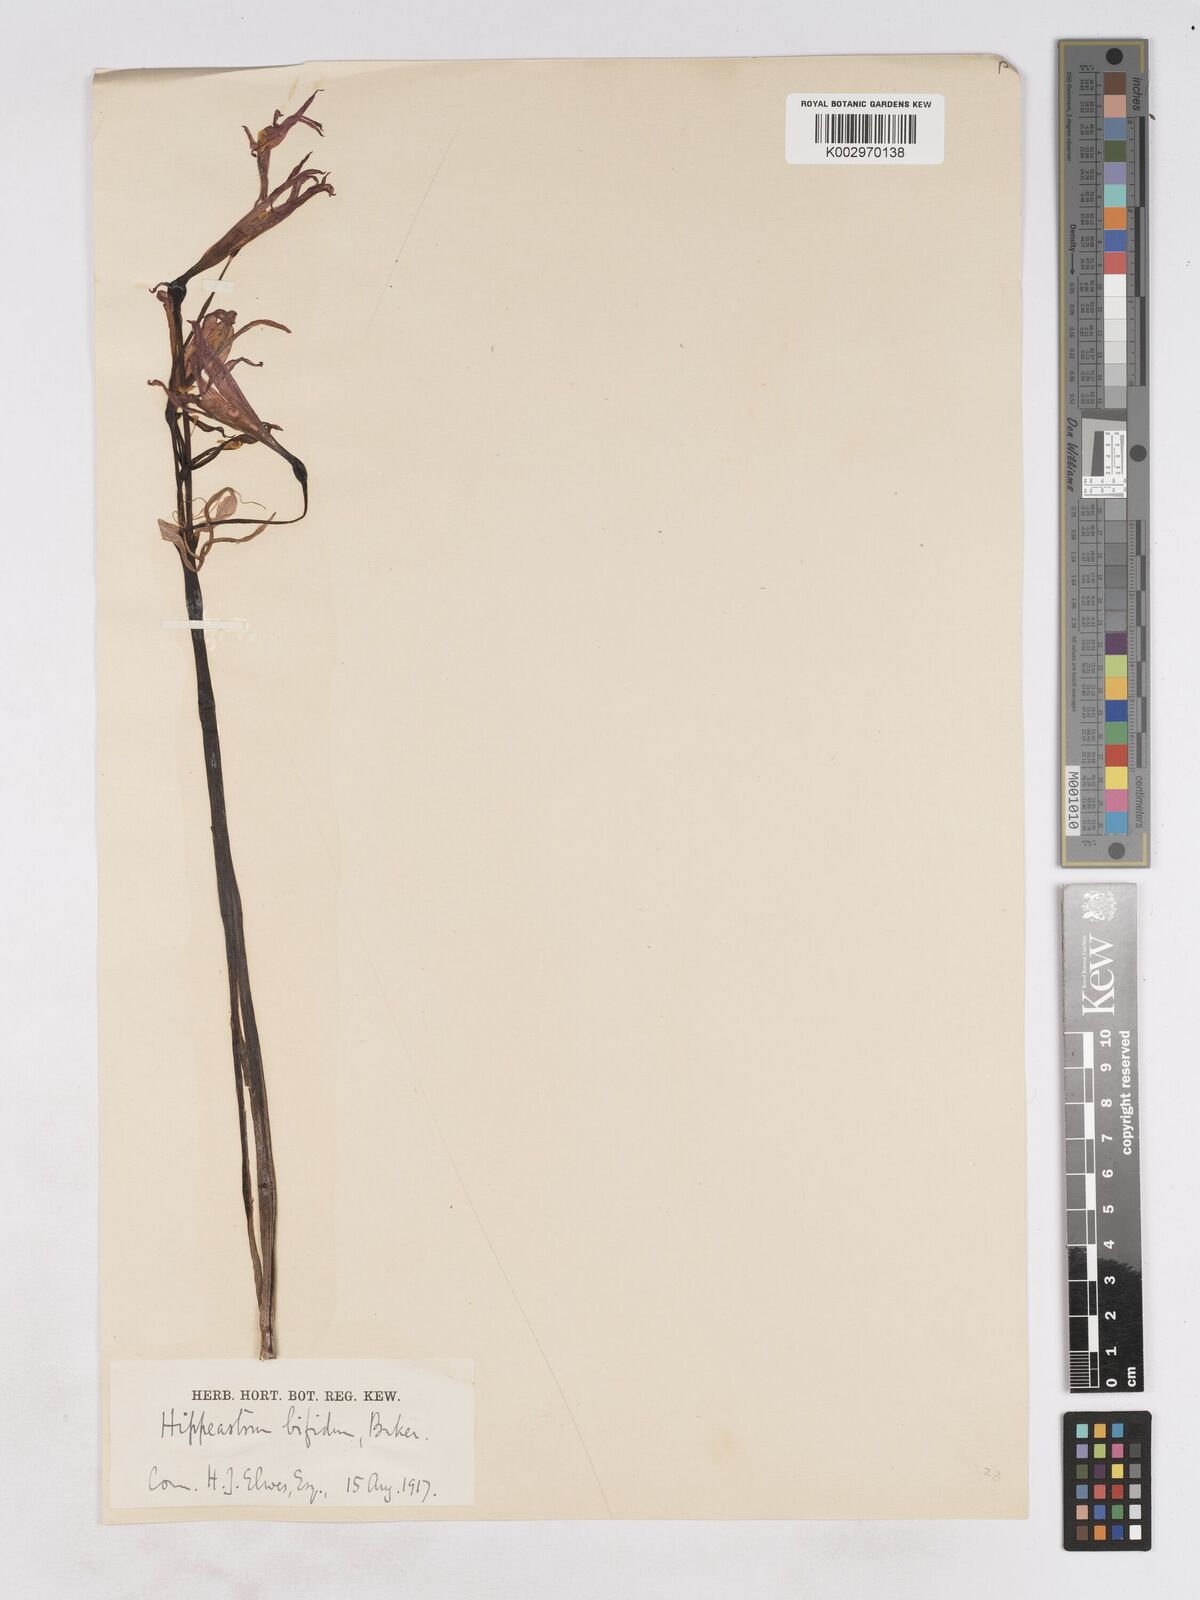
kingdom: Plantae
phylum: Tracheophyta
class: Liliopsida
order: Asparagales
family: Amaryllidaceae
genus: Zephyranthes
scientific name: Zephyranthes bifida
